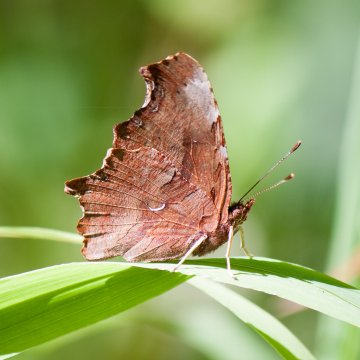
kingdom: Animalia
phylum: Arthropoda
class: Insecta
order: Lepidoptera
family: Nymphalidae
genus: Polygonia
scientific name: Polygonia satyrus
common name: Satyr Comma
